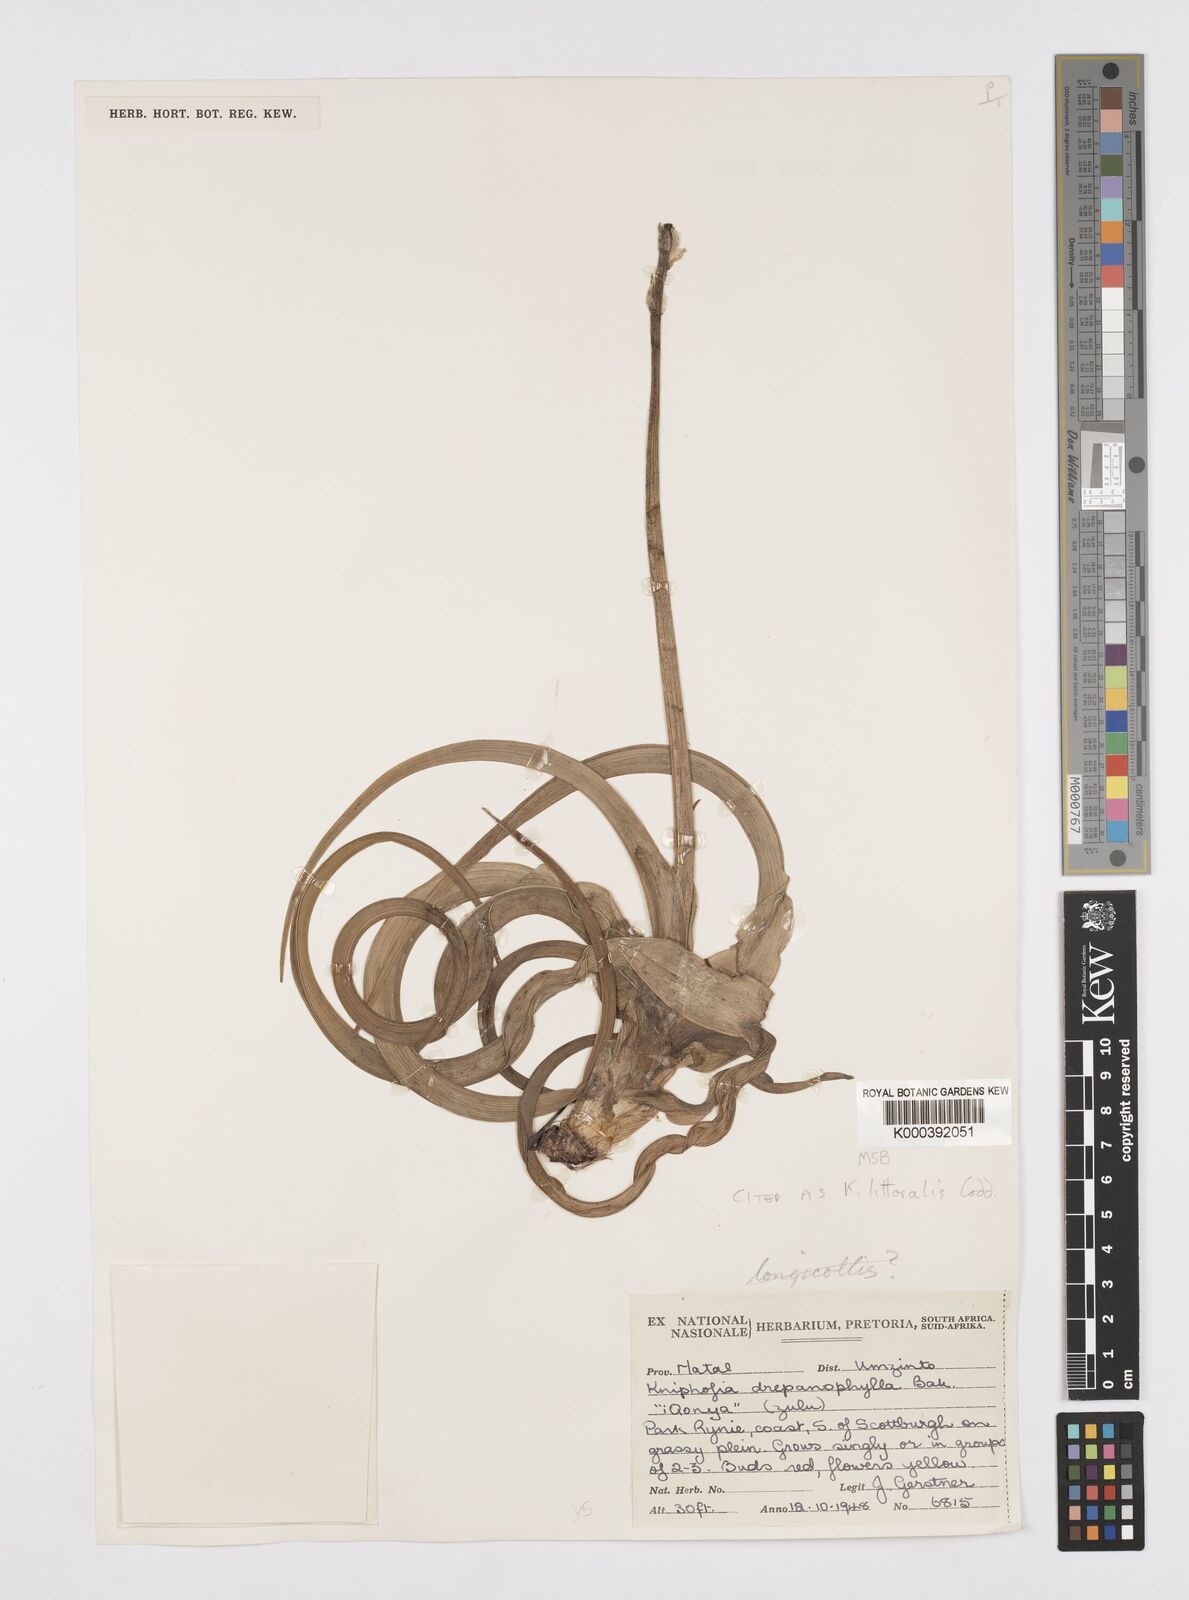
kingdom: Plantae
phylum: Tracheophyta
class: Liliopsida
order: Asparagales
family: Asphodelaceae
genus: Kniphofia
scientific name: Kniphofia littoralis
